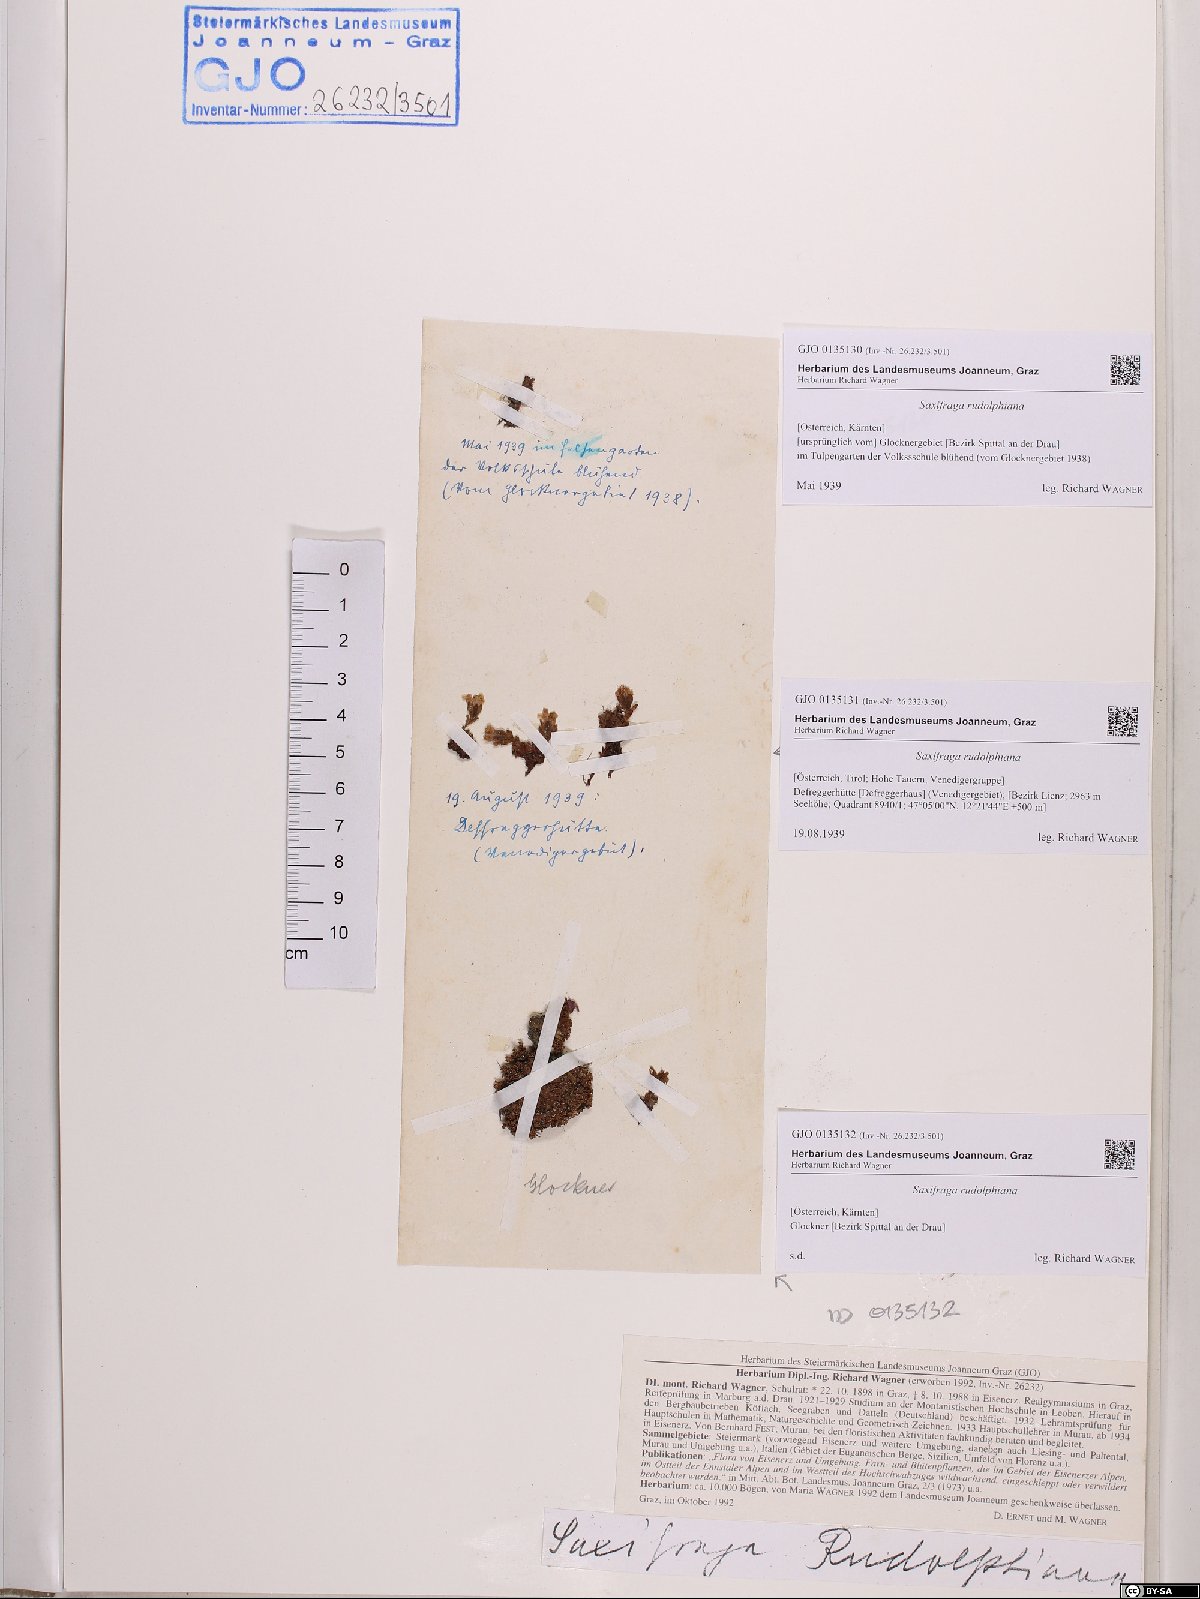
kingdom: Plantae
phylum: Tracheophyta
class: Magnoliopsida
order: Saxifragales
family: Saxifragaceae
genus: Saxifraga
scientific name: Saxifraga oppositifolia
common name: Purple saxifrage
